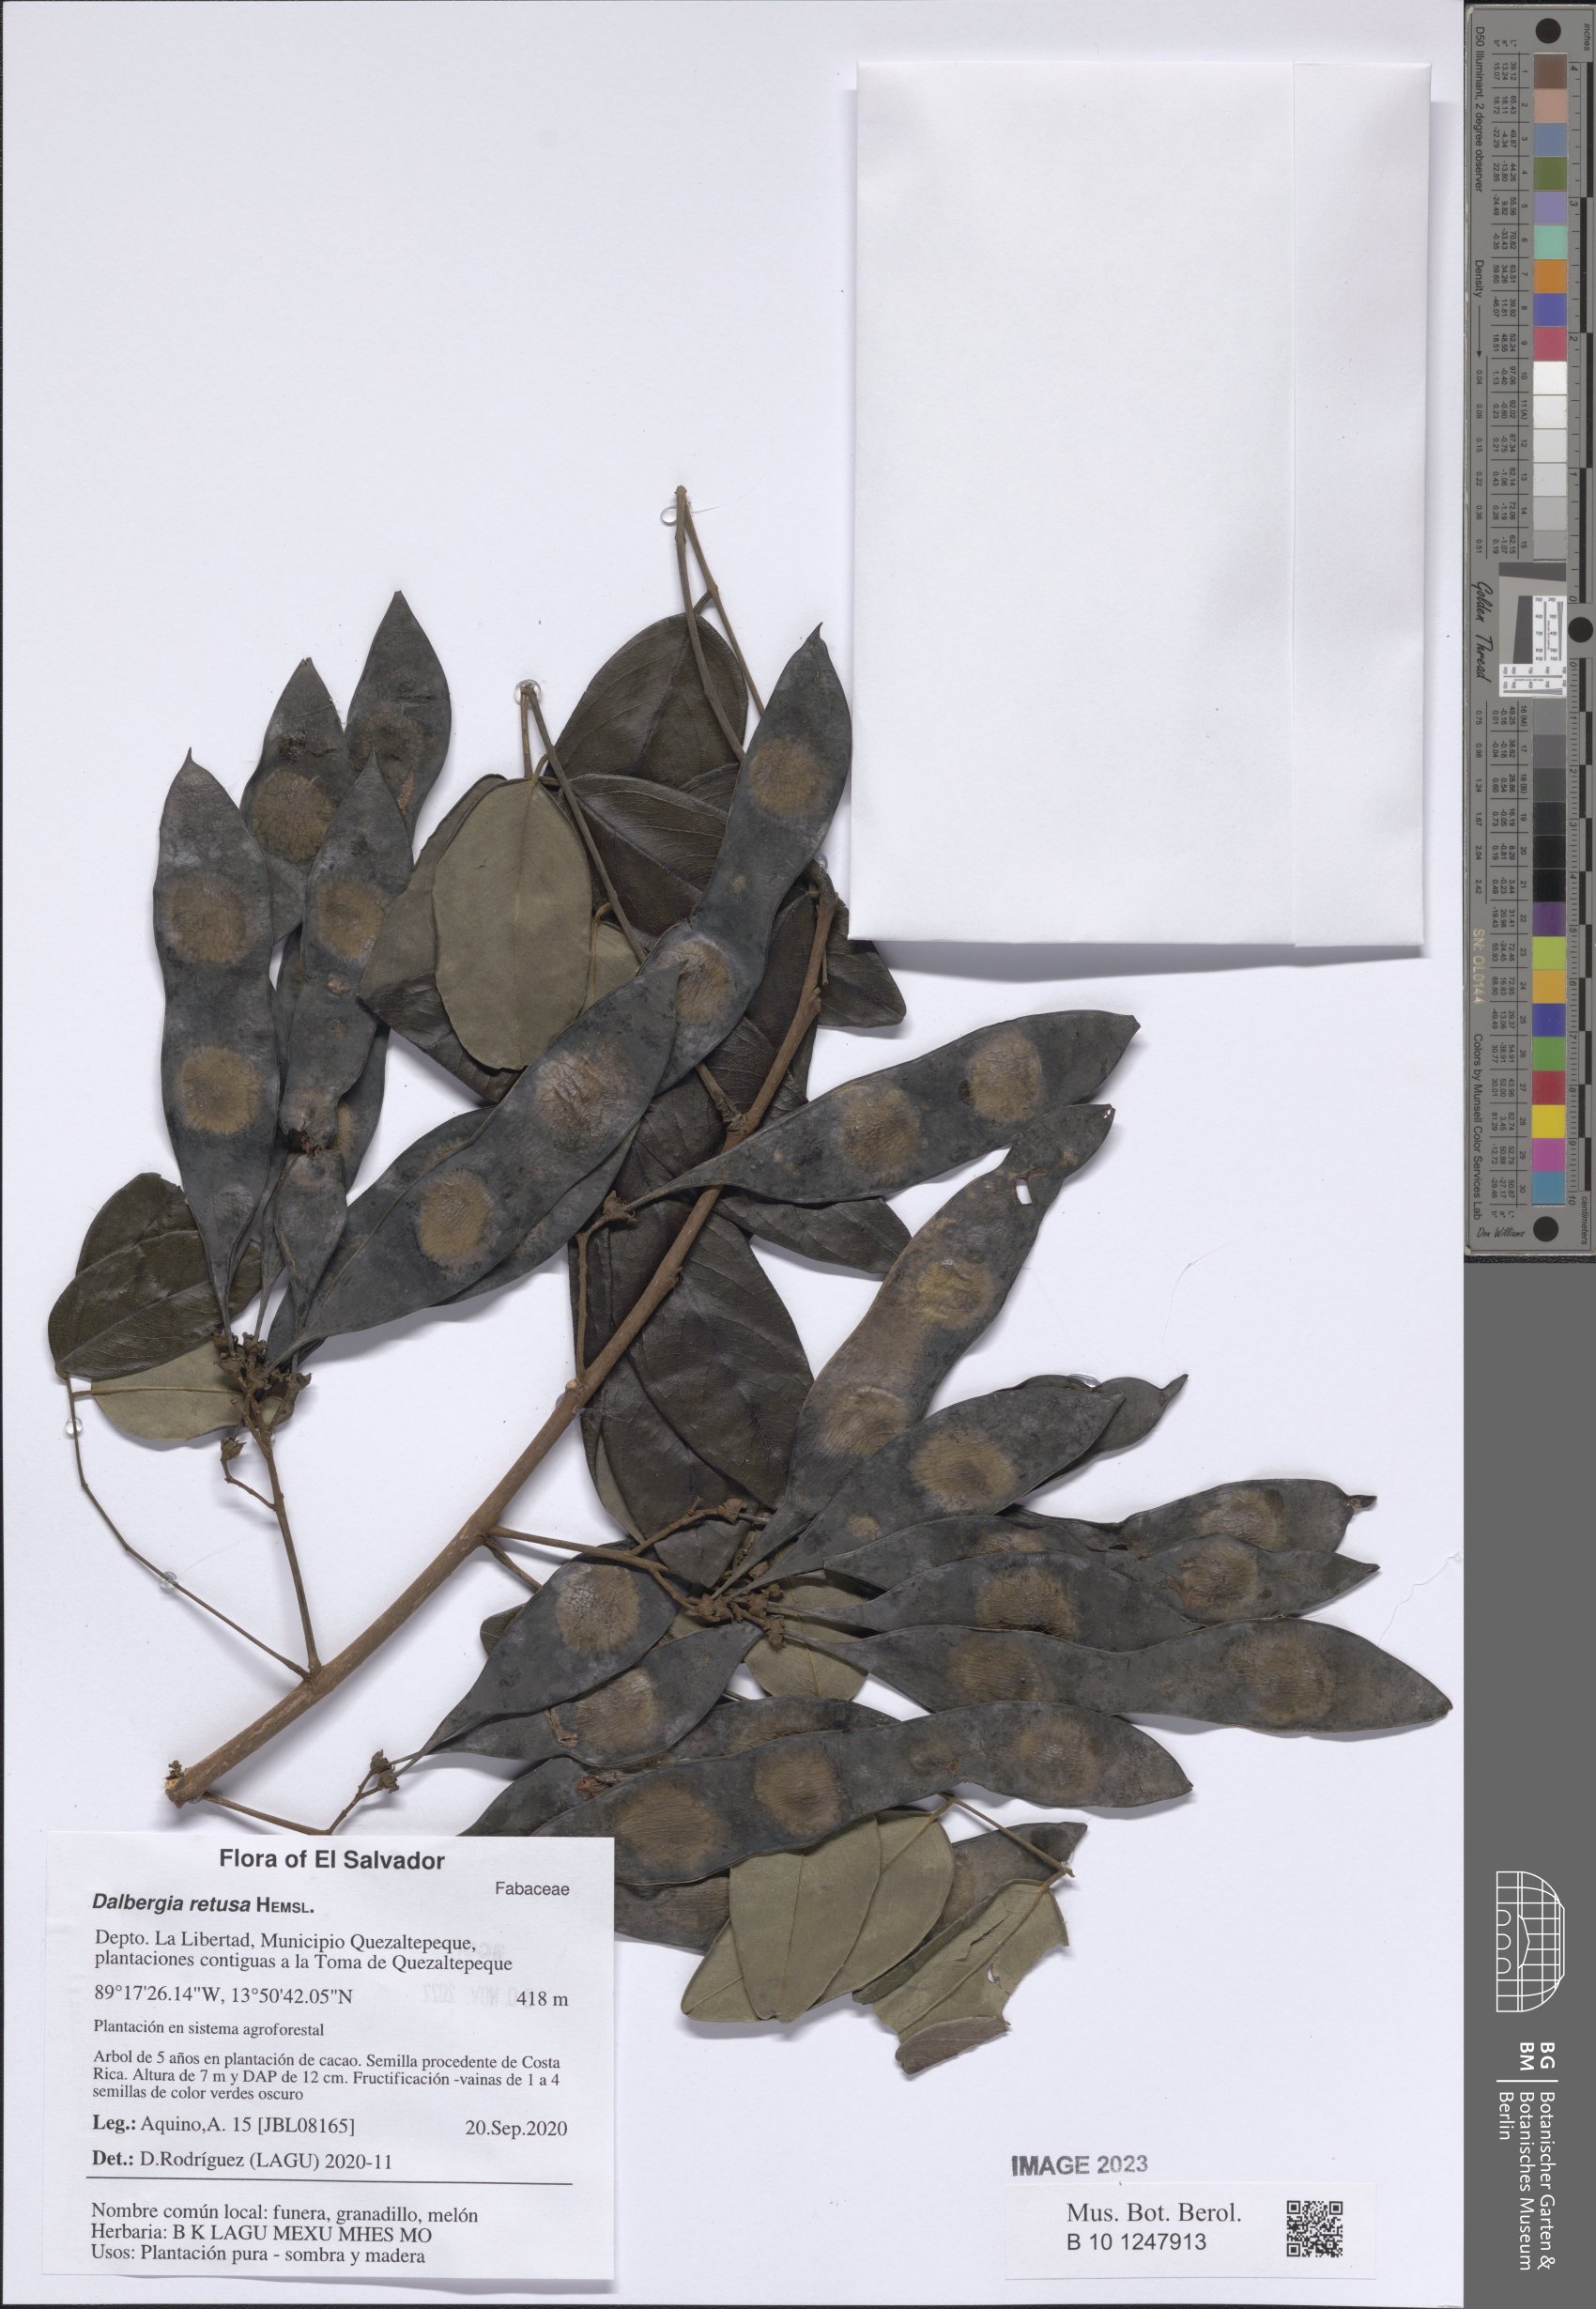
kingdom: Plantae
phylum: Tracheophyta
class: Magnoliopsida
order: Fabales
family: Fabaceae
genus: Dalbergia
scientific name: Dalbergia retusa
